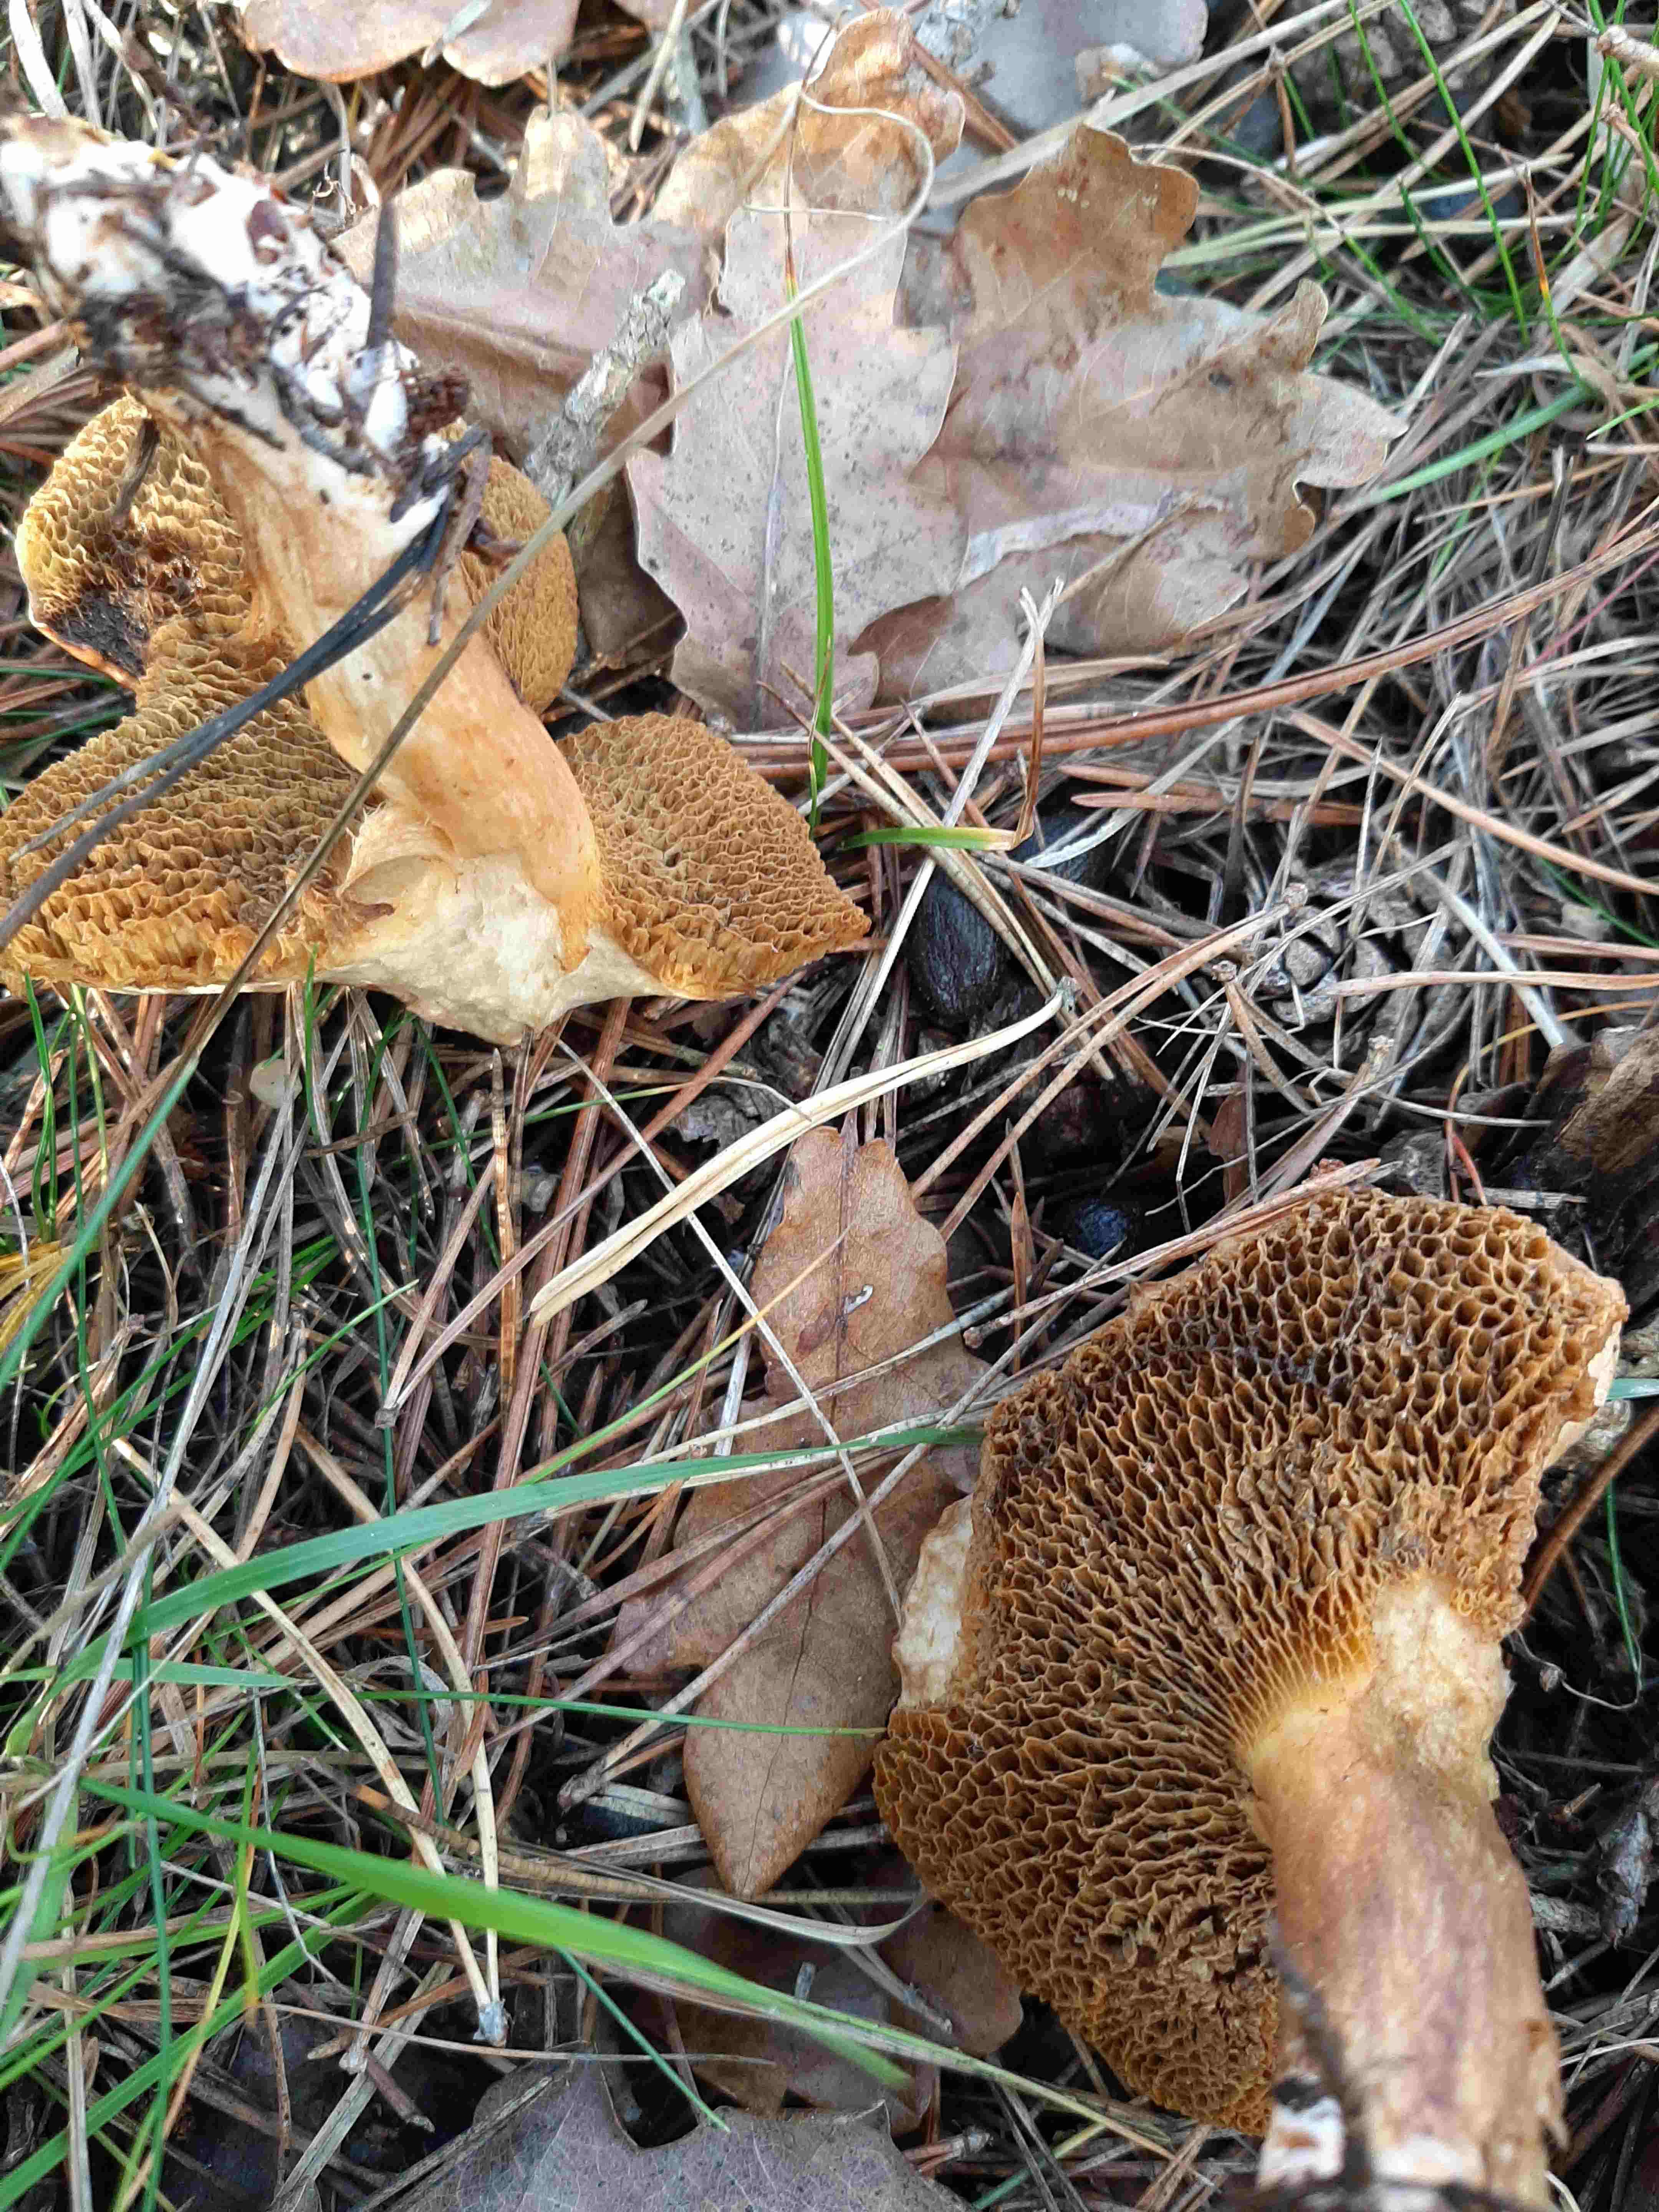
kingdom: Fungi
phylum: Basidiomycota
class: Agaricomycetes
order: Boletales
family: Suillaceae
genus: Suillus
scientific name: Suillus bovinus
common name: grovporet slimrørhat
